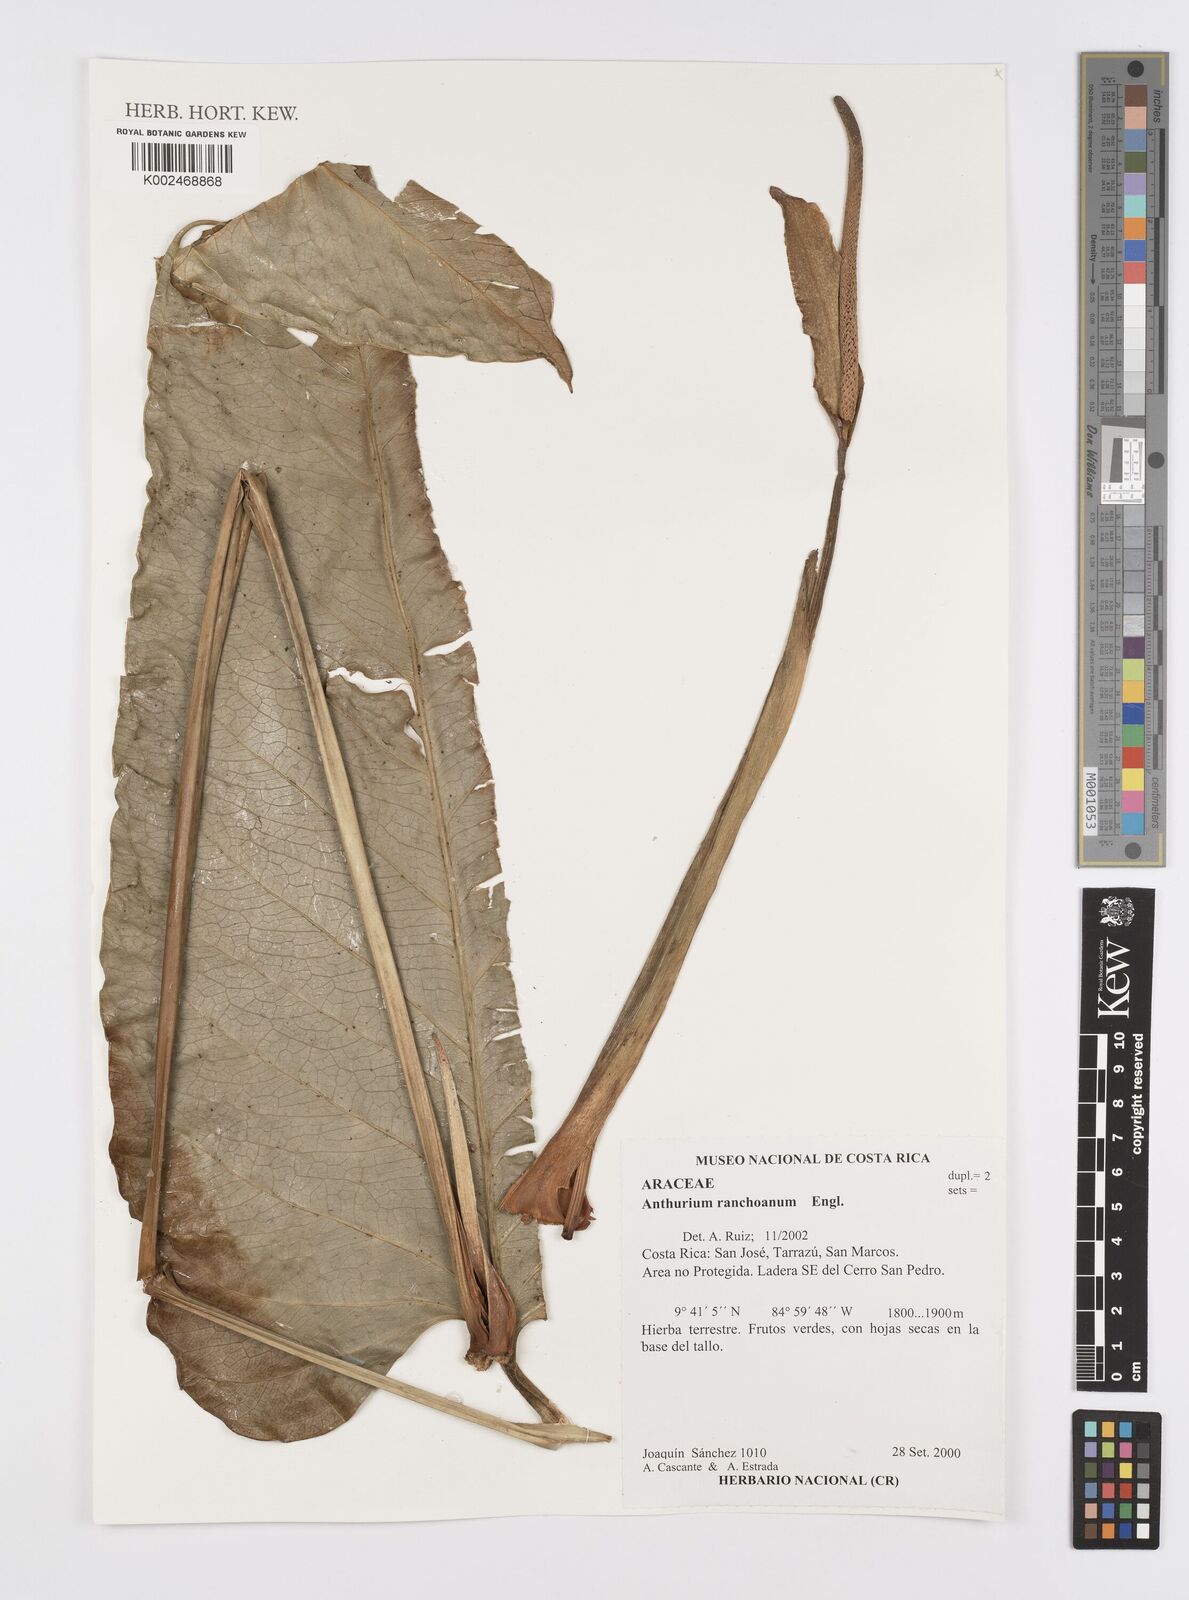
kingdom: Plantae
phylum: Tracheophyta
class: Liliopsida
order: Alismatales
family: Araceae
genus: Anthurium
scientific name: Anthurium ranchoanum
